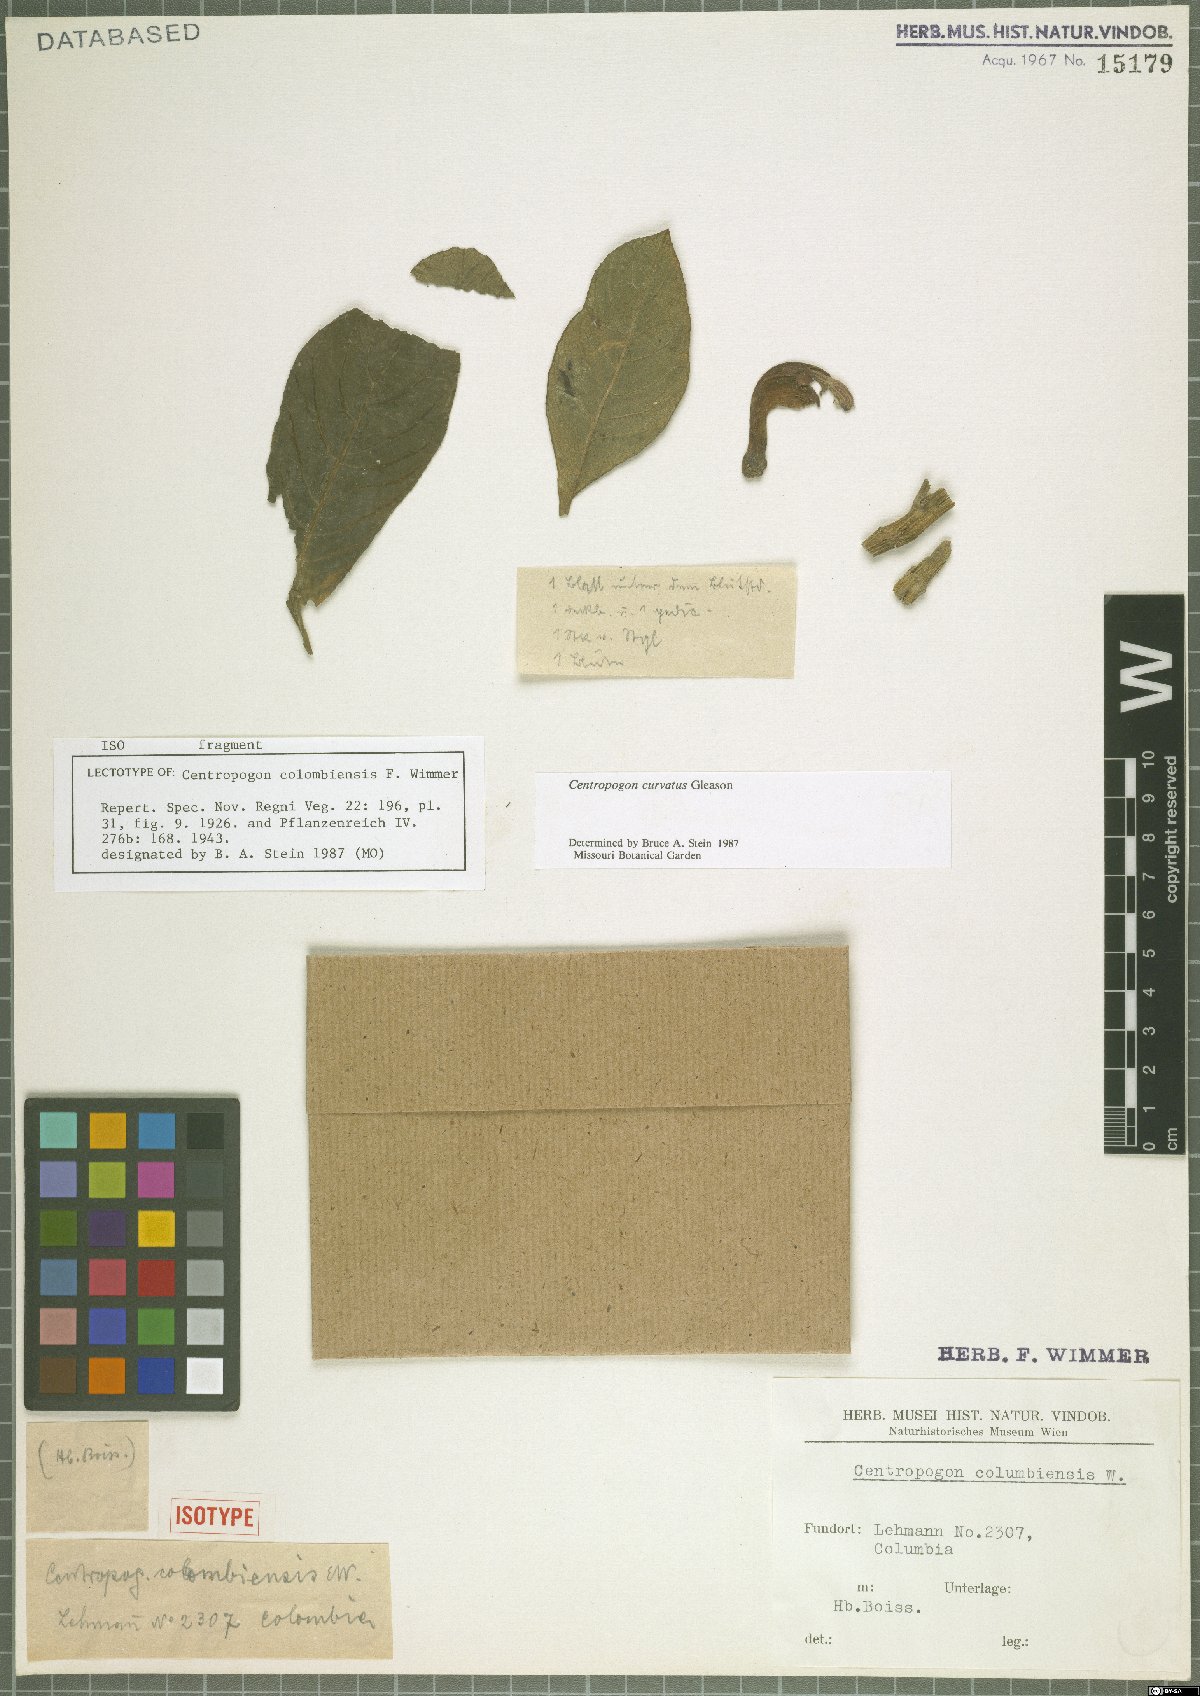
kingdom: Plantae
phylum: Tracheophyta
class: Magnoliopsida
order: Asterales
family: Campanulaceae
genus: Centropogon
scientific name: Centropogon curvatus
